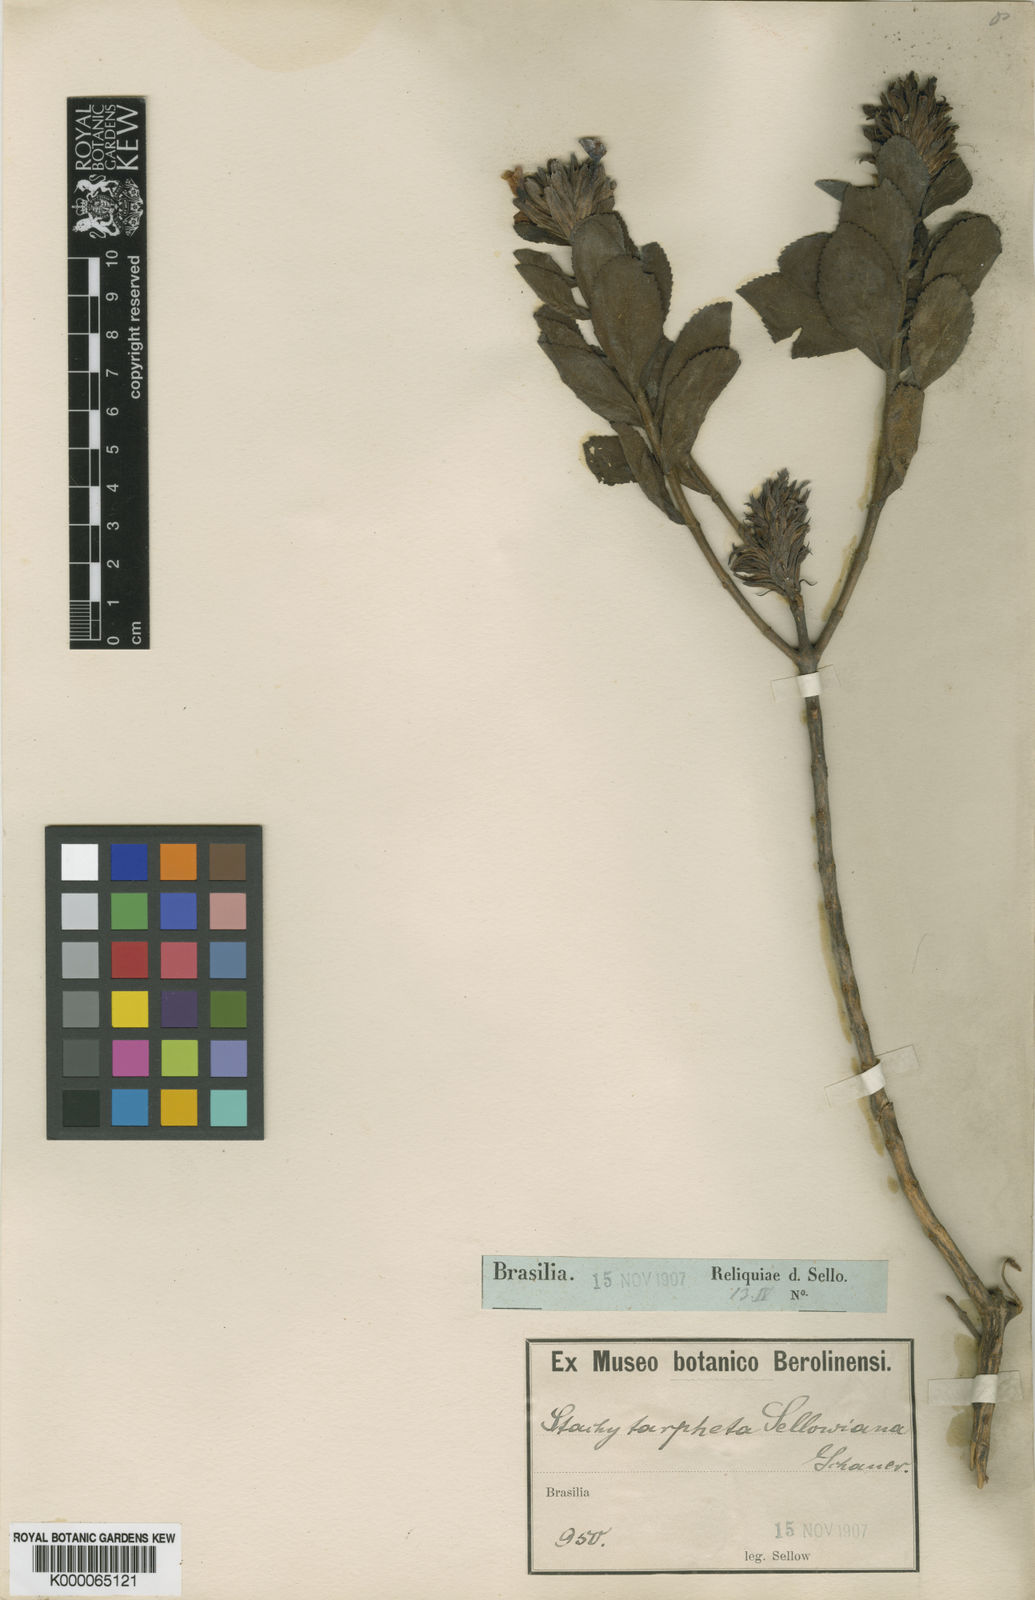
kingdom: Plantae
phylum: Tracheophyta
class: Magnoliopsida
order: Lamiales
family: Verbenaceae
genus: Stachytarpheta
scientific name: Stachytarpheta sellowiana
